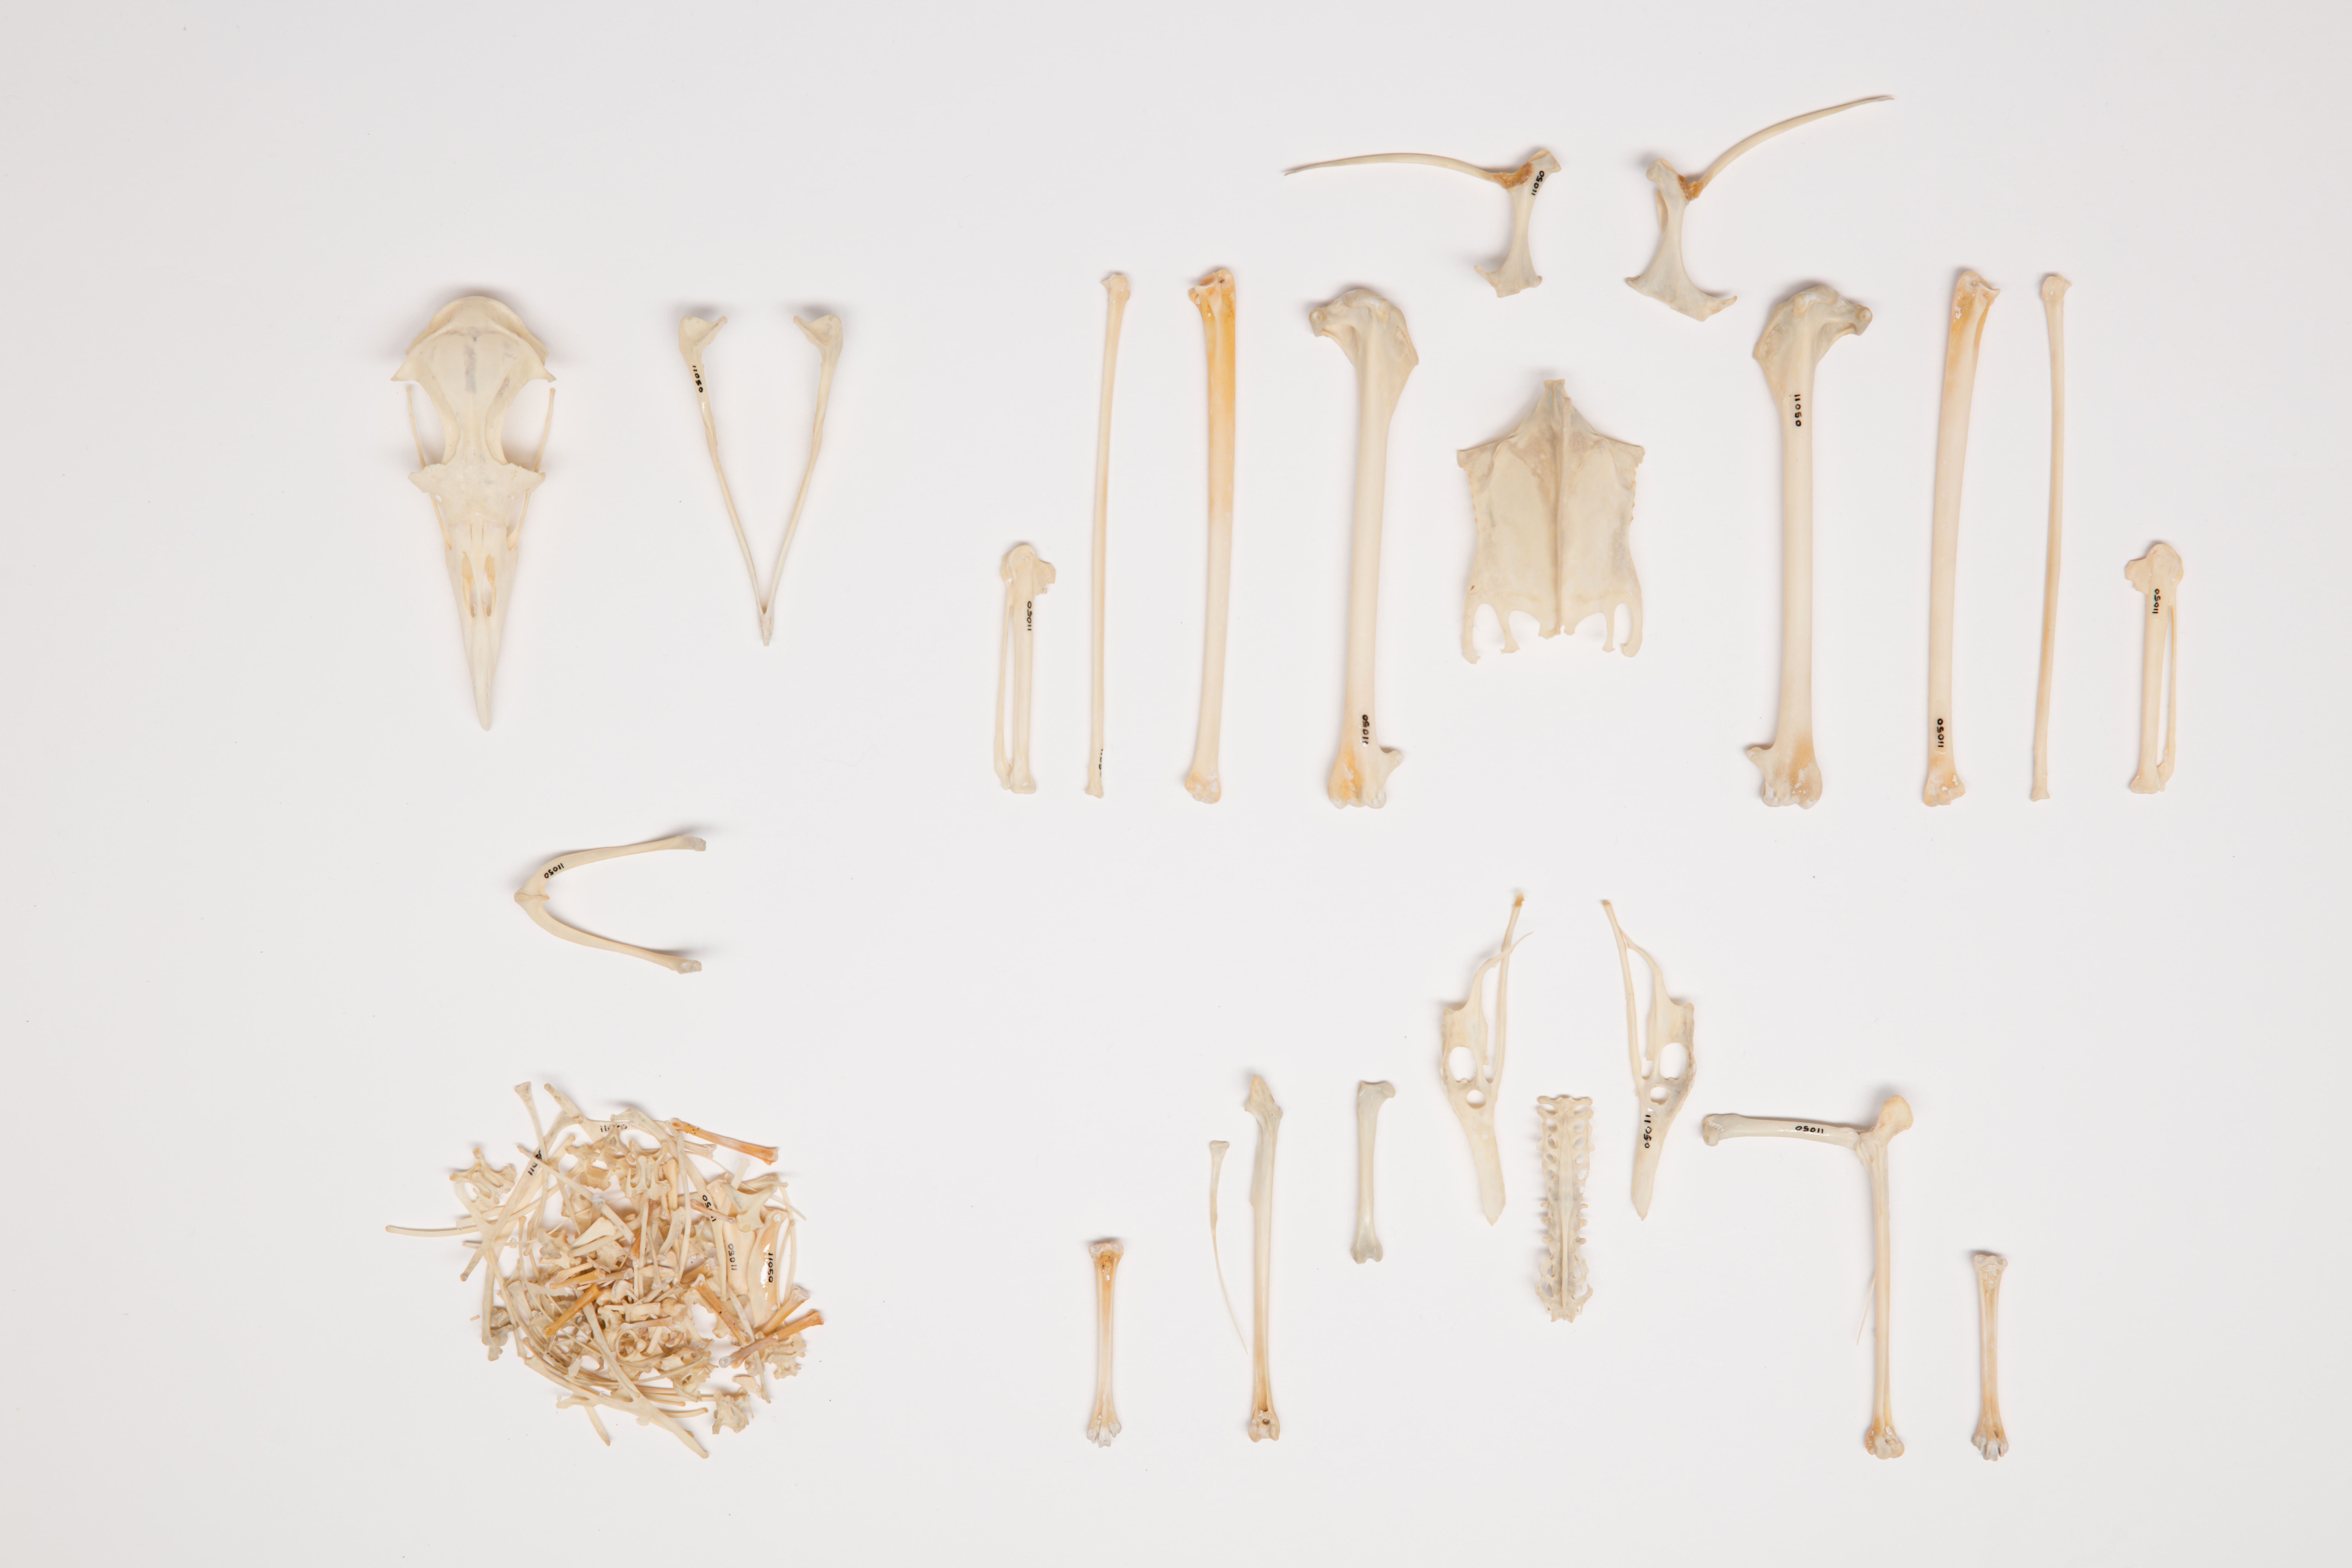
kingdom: Animalia
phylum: Chordata
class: Aves
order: Procellariiformes
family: Procellariidae
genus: Pterodroma
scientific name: Pterodroma macroptera
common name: Great-winged petrel
